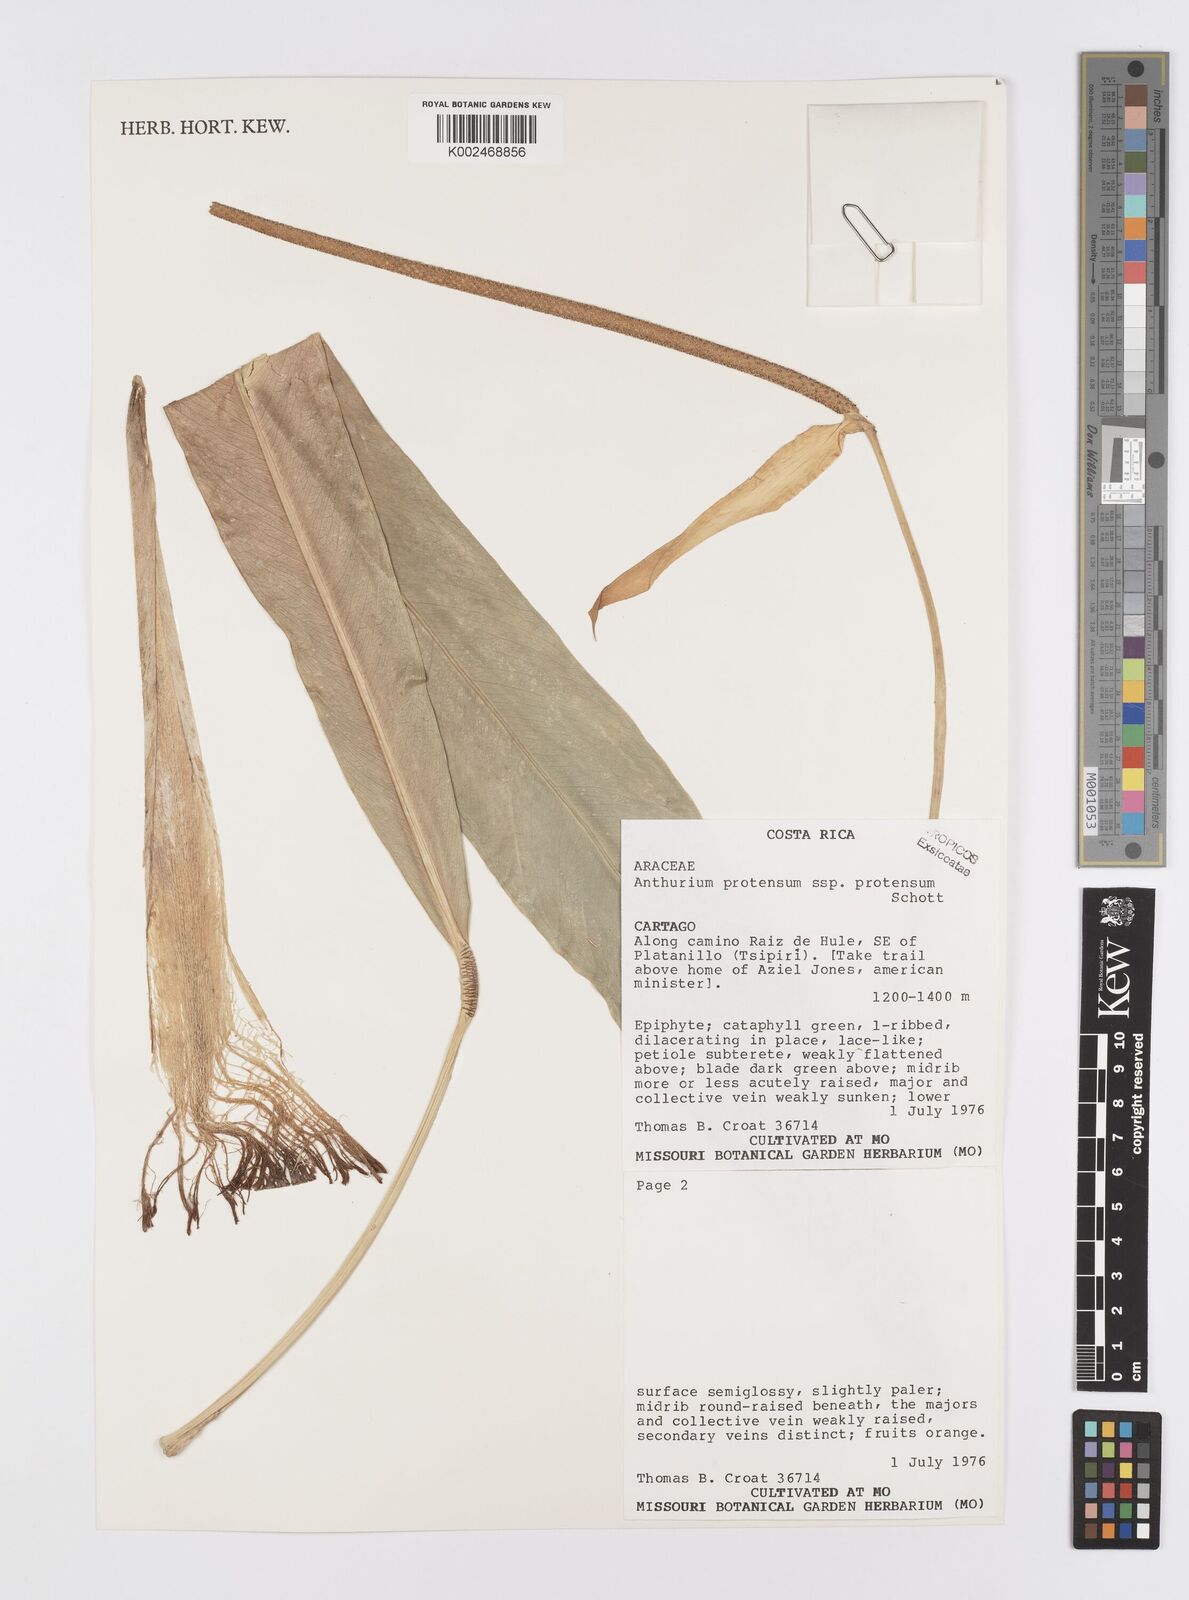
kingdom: Plantae
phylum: Tracheophyta
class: Liliopsida
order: Alismatales
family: Araceae
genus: Anthurium
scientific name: Anthurium protensum
